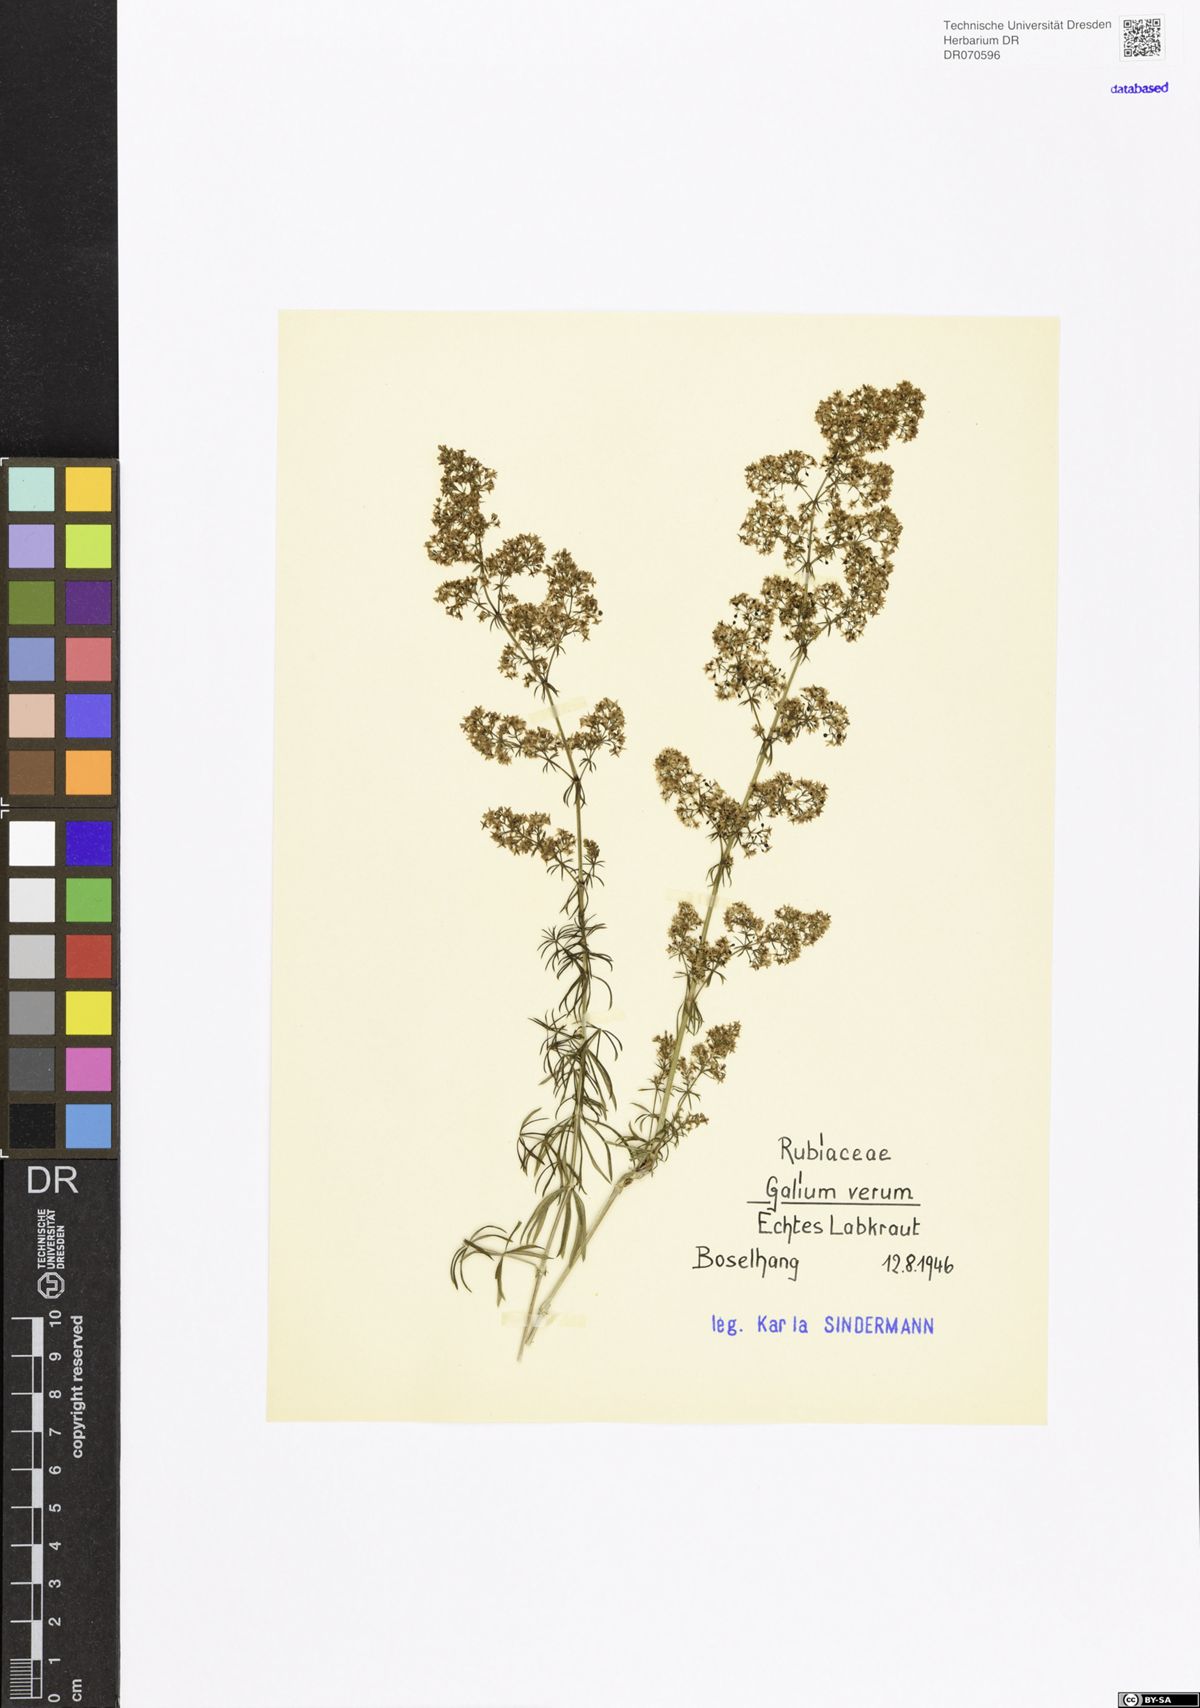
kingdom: Plantae
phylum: Tracheophyta
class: Magnoliopsida
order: Gentianales
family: Rubiaceae
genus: Galium
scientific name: Galium verum
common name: Lady's bedstraw
